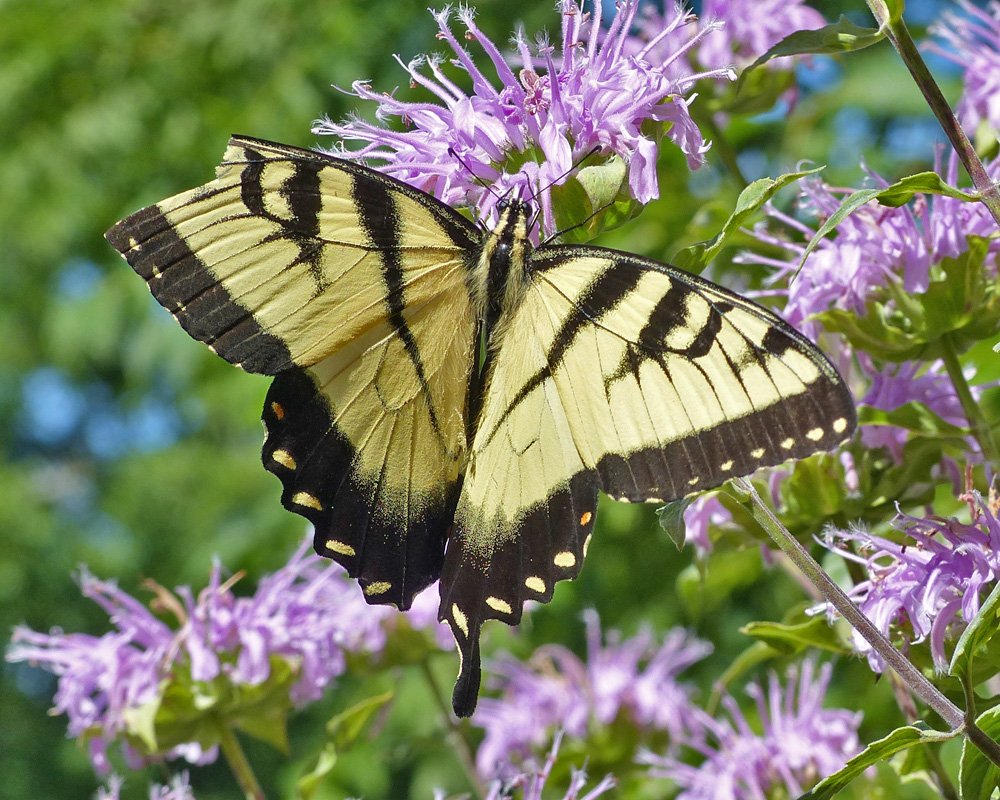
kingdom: Animalia
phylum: Arthropoda
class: Insecta
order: Lepidoptera
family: Papilionidae
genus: Pterourus
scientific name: Pterourus glaucus
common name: Eastern Tiger Swallowtail
